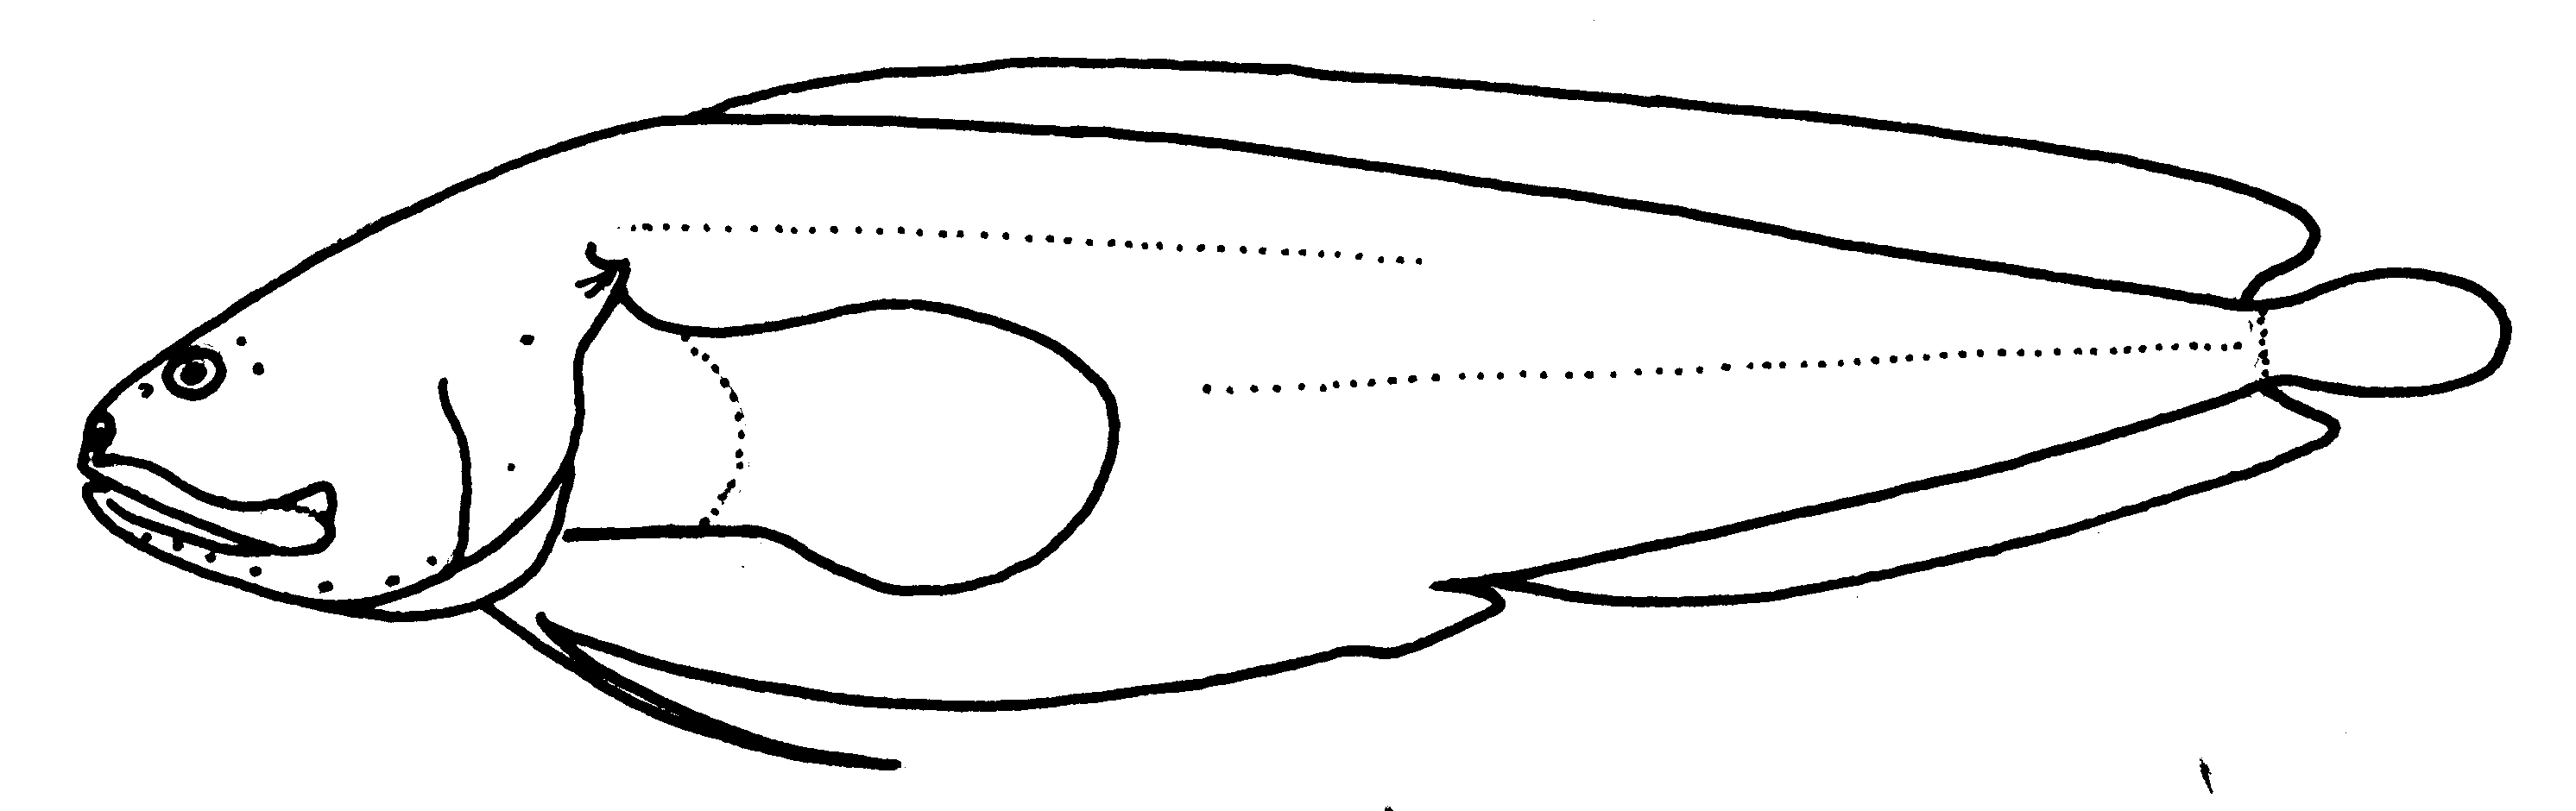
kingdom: Animalia
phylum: Chordata
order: Ophidiiformes
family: Bythitidae
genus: Bidenichthys
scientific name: Bidenichthys capensis
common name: Freetail brotula
